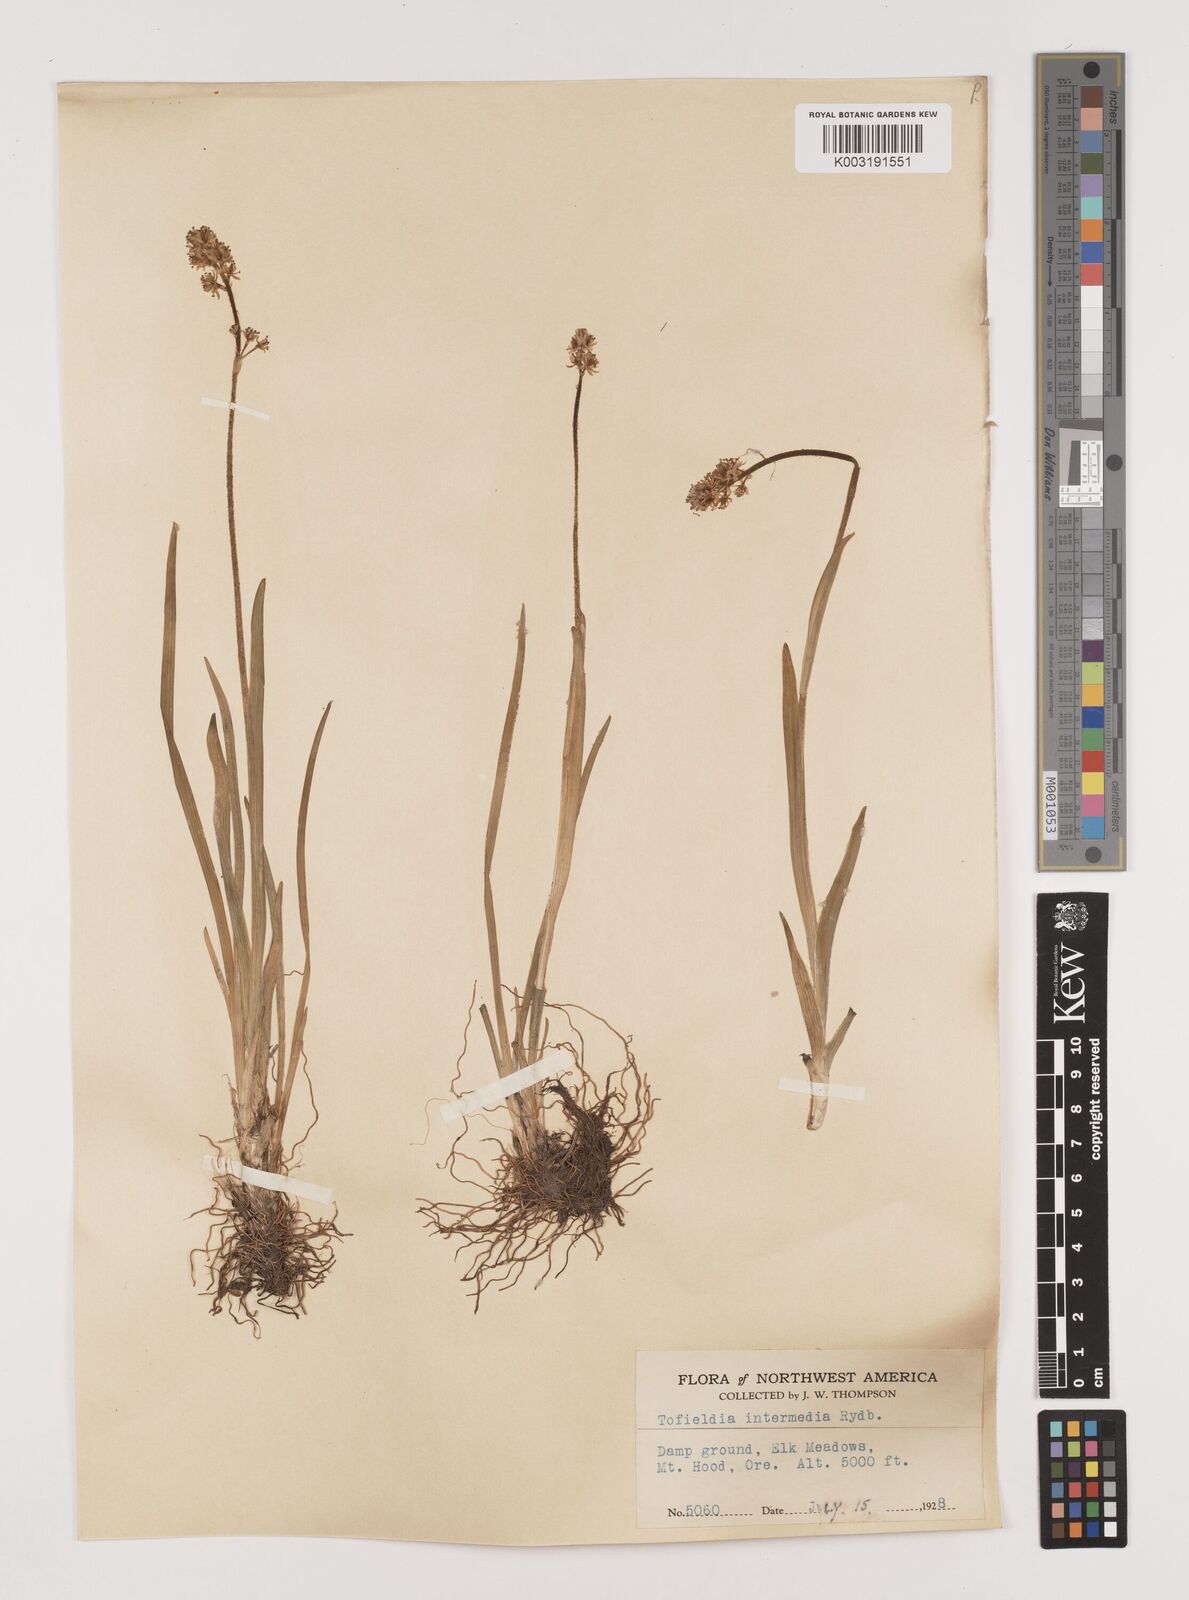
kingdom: Plantae
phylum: Tracheophyta
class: Liliopsida
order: Alismatales
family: Tofieldiaceae
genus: Triantha
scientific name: Triantha occidentalis
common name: Western false asphodel
